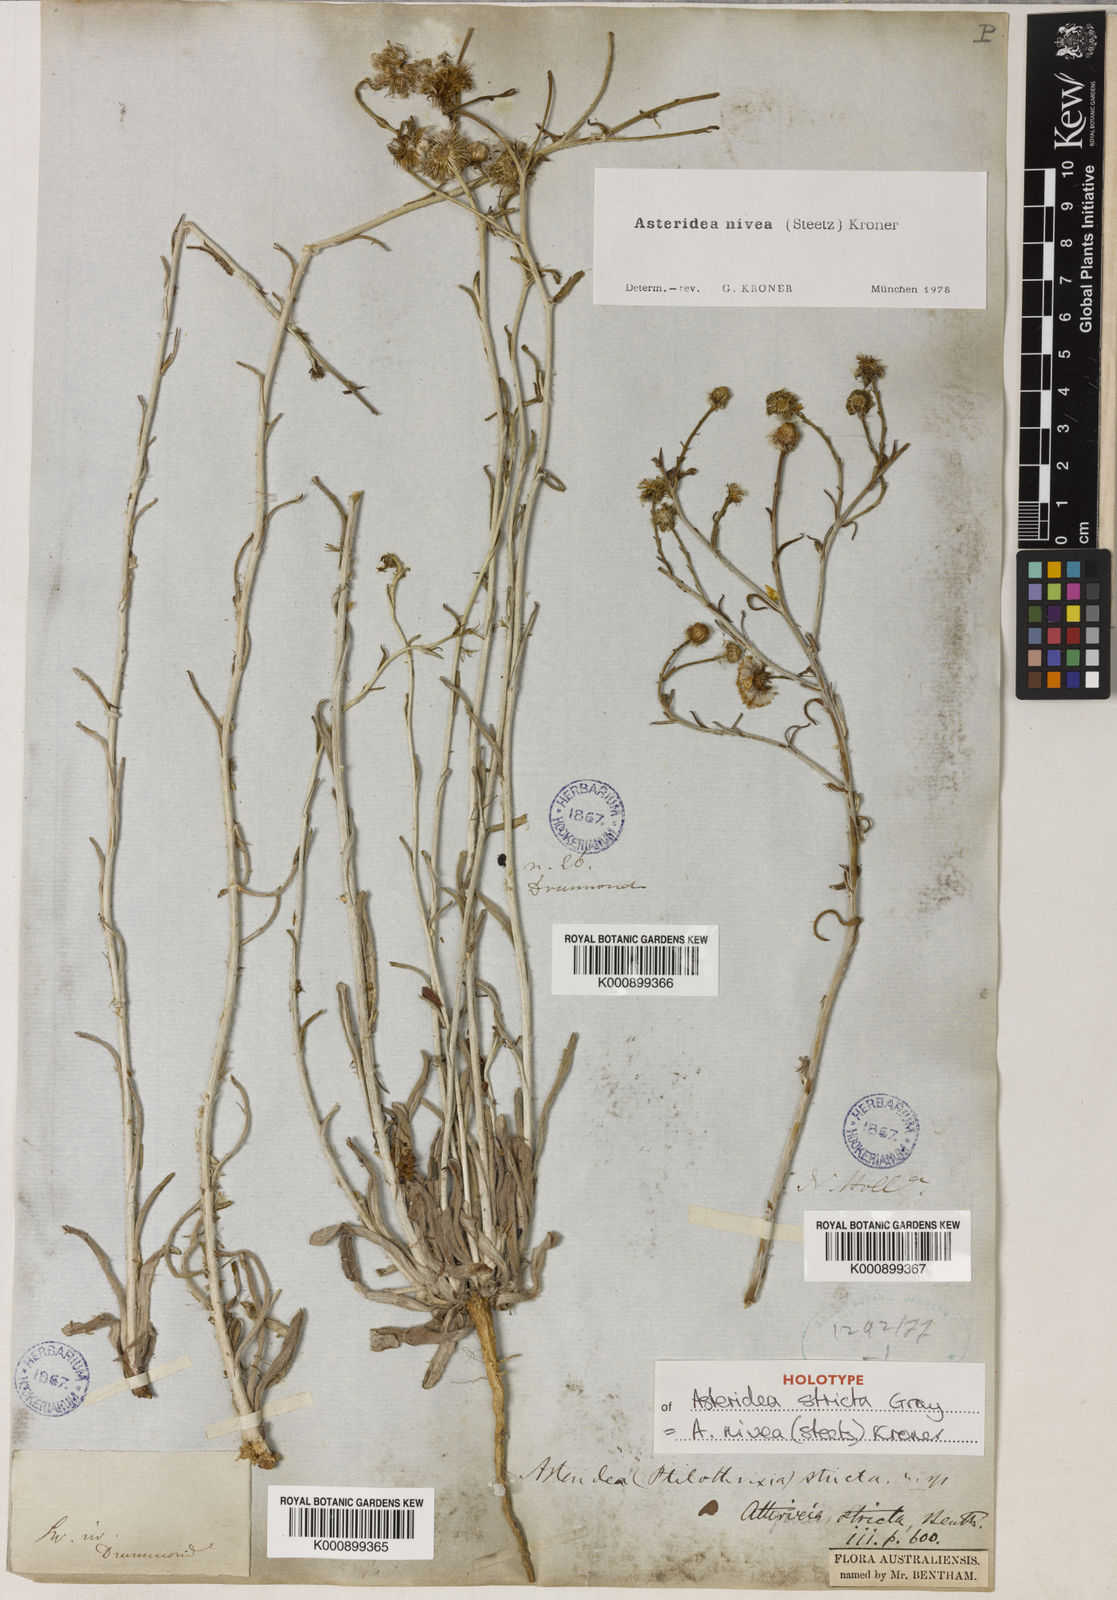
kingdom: Plantae
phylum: Tracheophyta
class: Magnoliopsida
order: Asterales
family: Asteraceae
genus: Asteridea
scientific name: Asteridea nivea
